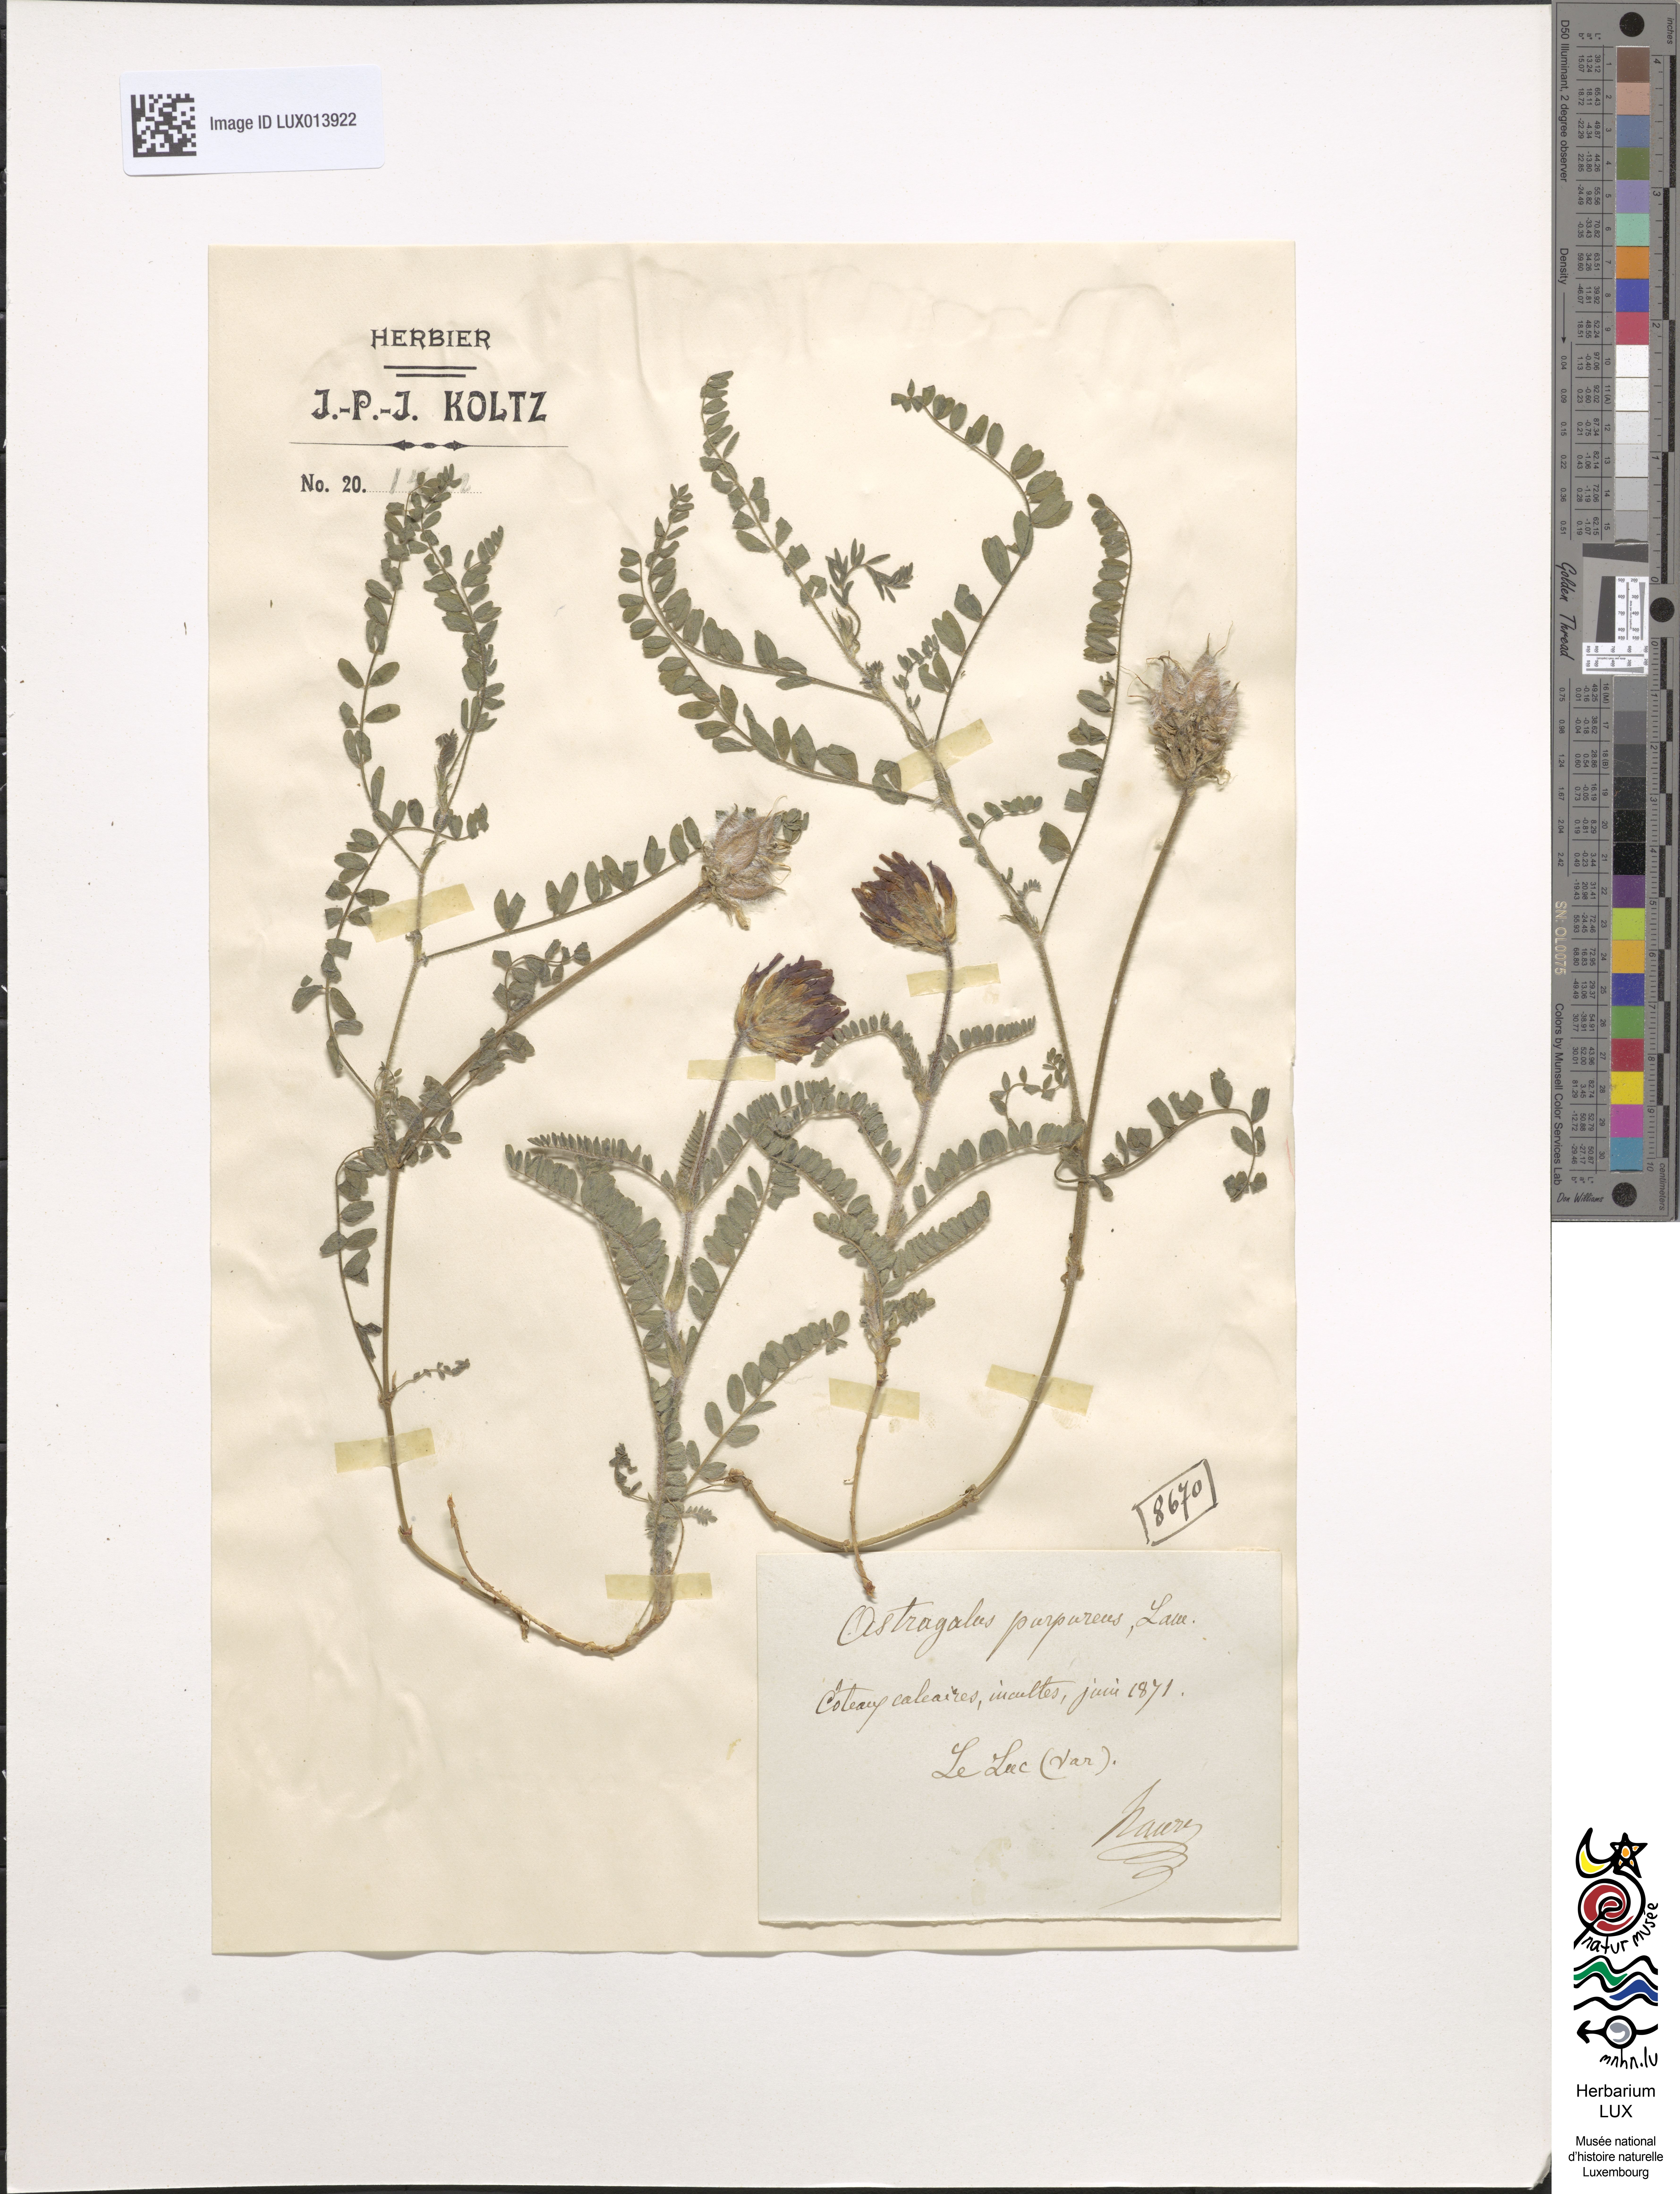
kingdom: Plantae
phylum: Tracheophyta
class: Magnoliopsida
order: Fabales
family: Fabaceae
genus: Astragalus
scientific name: Astragalus hypoglottis
